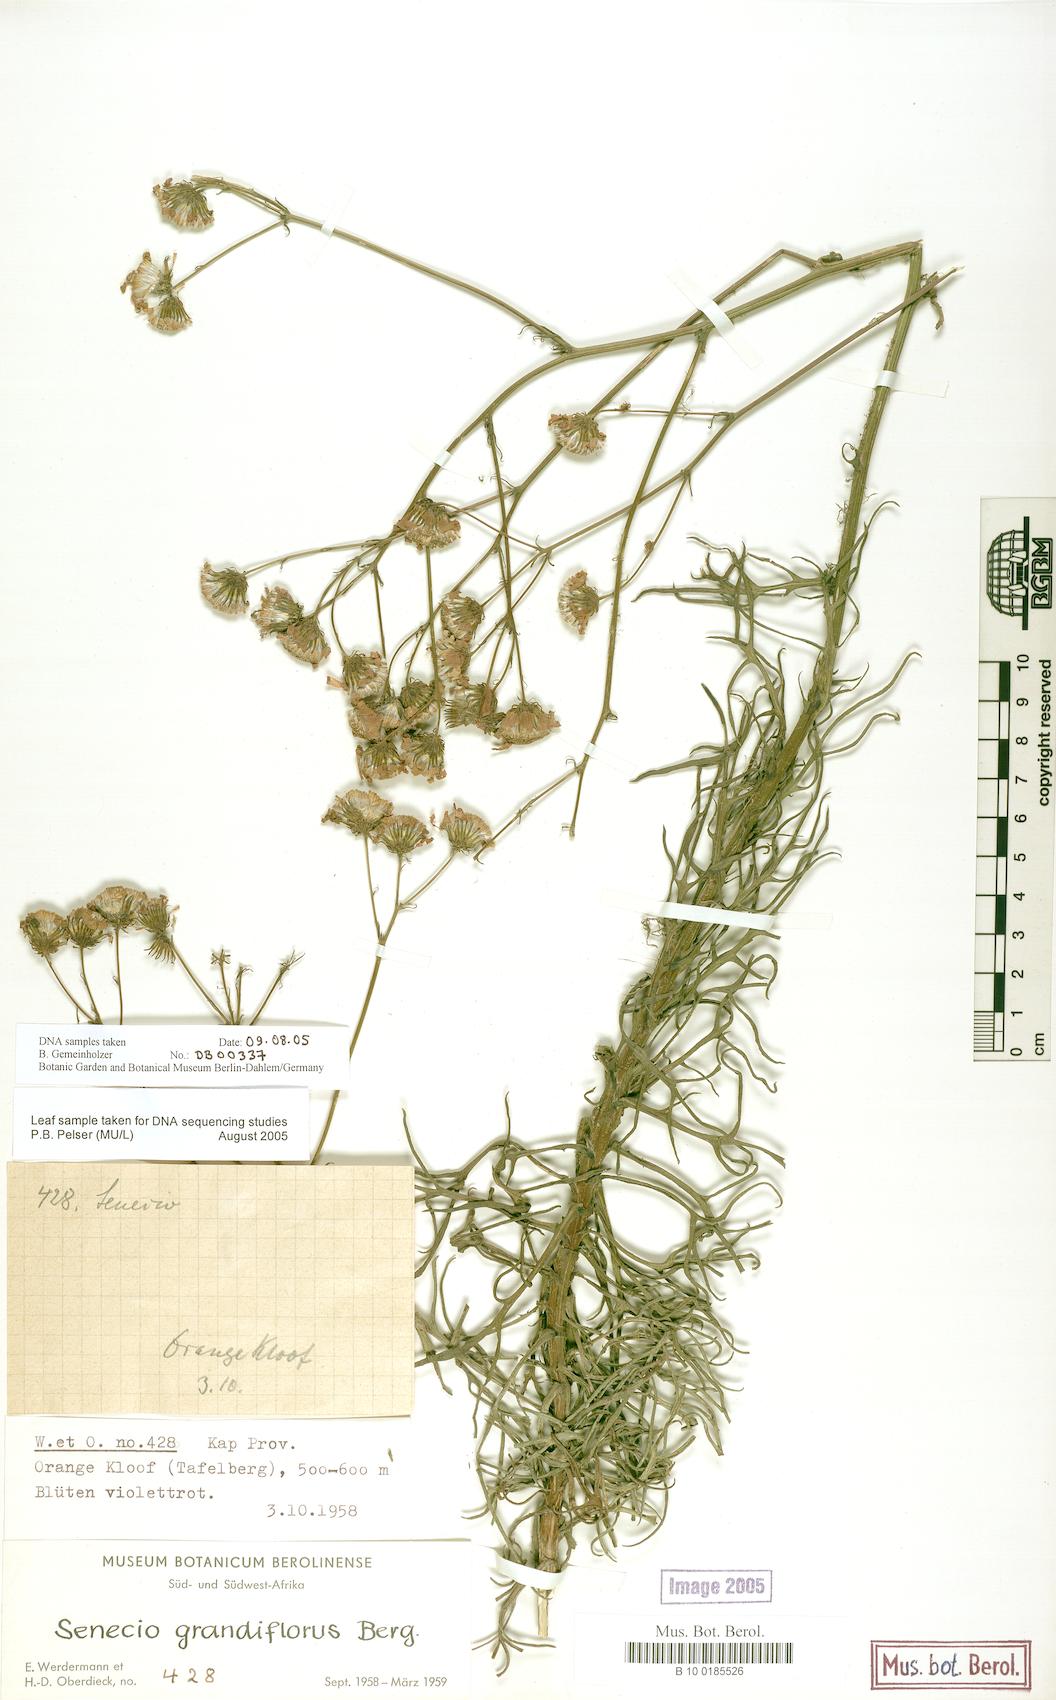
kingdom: Plantae
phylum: Tracheophyta
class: Magnoliopsida
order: Asterales
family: Asteraceae
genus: Senecio
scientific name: Senecio grandiflorus
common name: Purple ragwort
